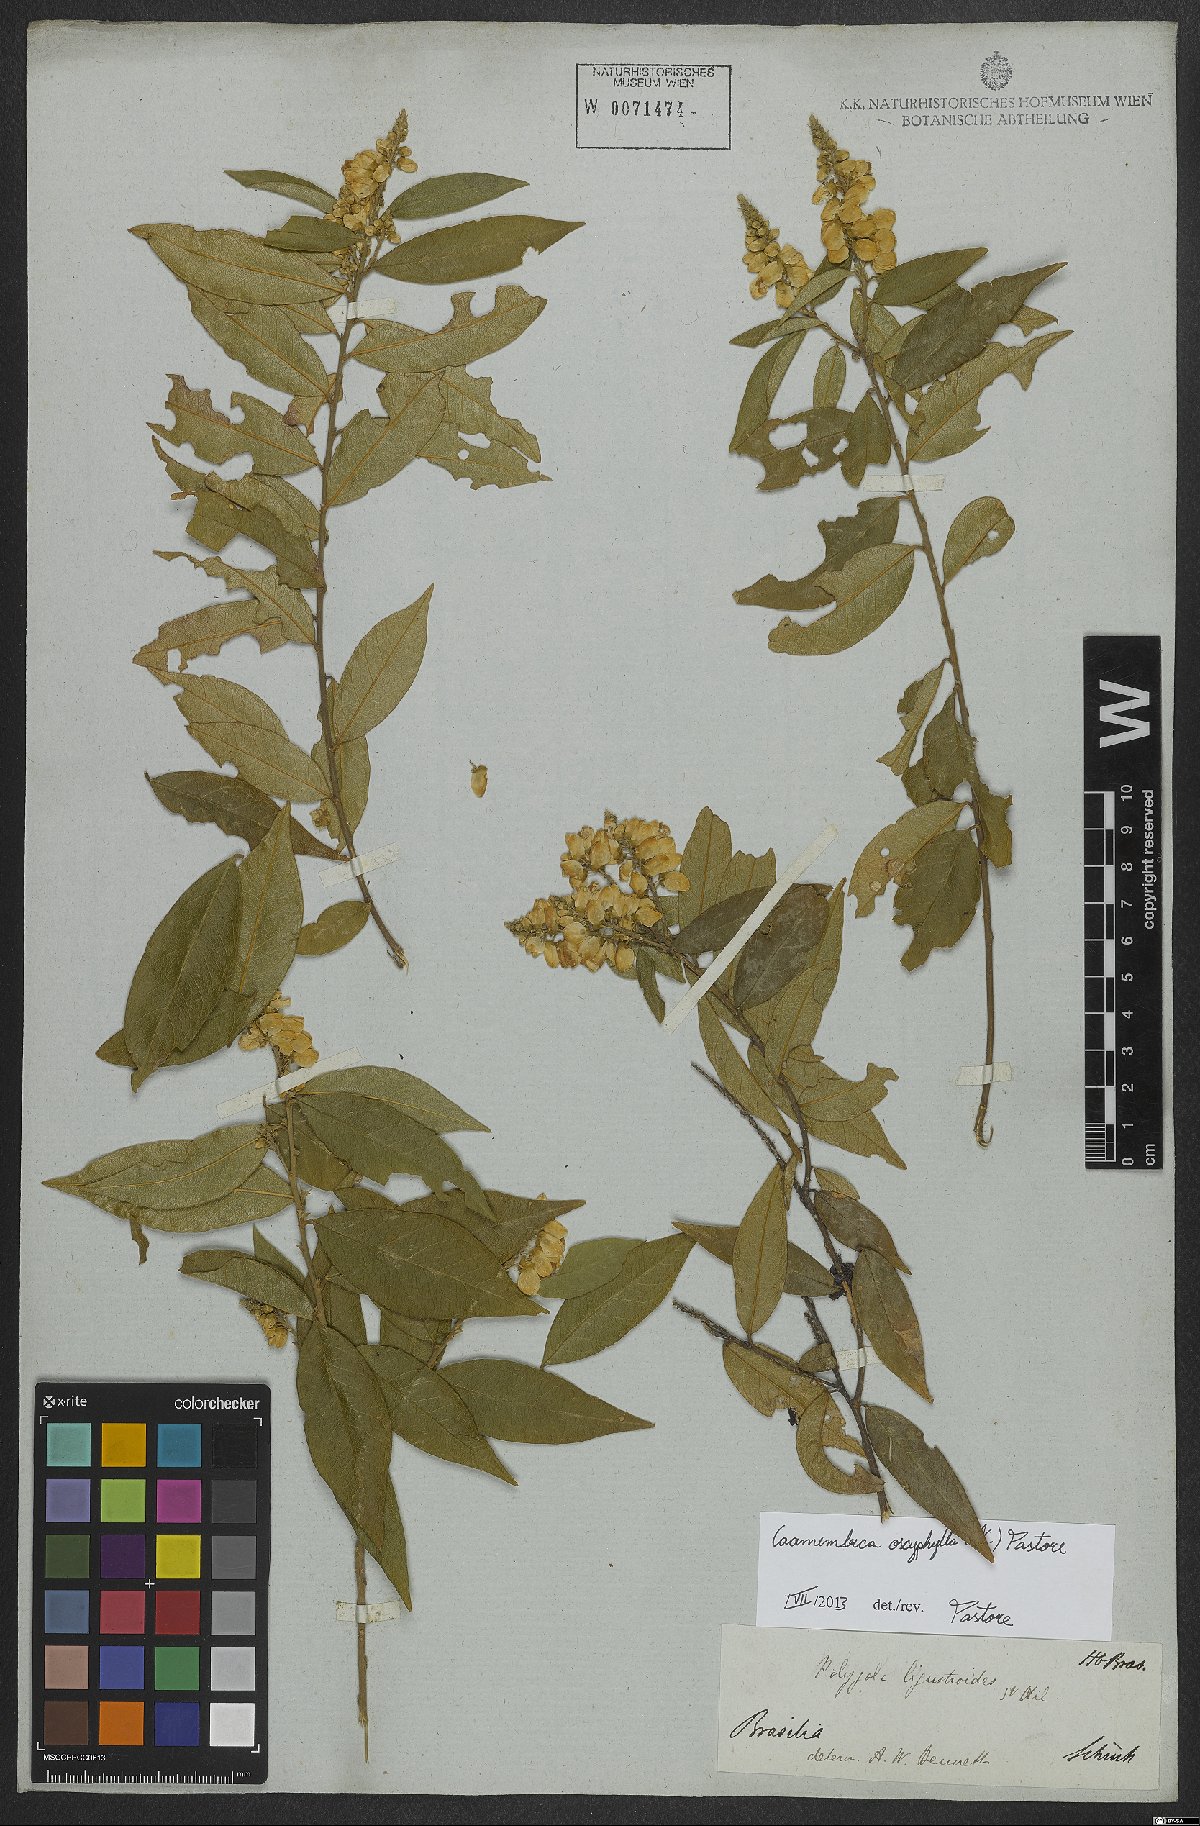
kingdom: Plantae
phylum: Tracheophyta
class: Magnoliopsida
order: Fabales
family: Polygalaceae
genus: Caamembeca
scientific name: Caamembeca oxyphylla
